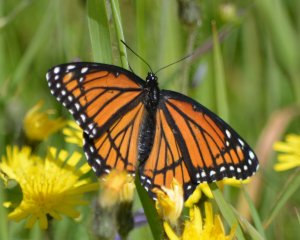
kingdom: Animalia
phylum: Arthropoda
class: Insecta
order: Lepidoptera
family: Nymphalidae
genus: Limenitis
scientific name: Limenitis archippus
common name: Viceroy
